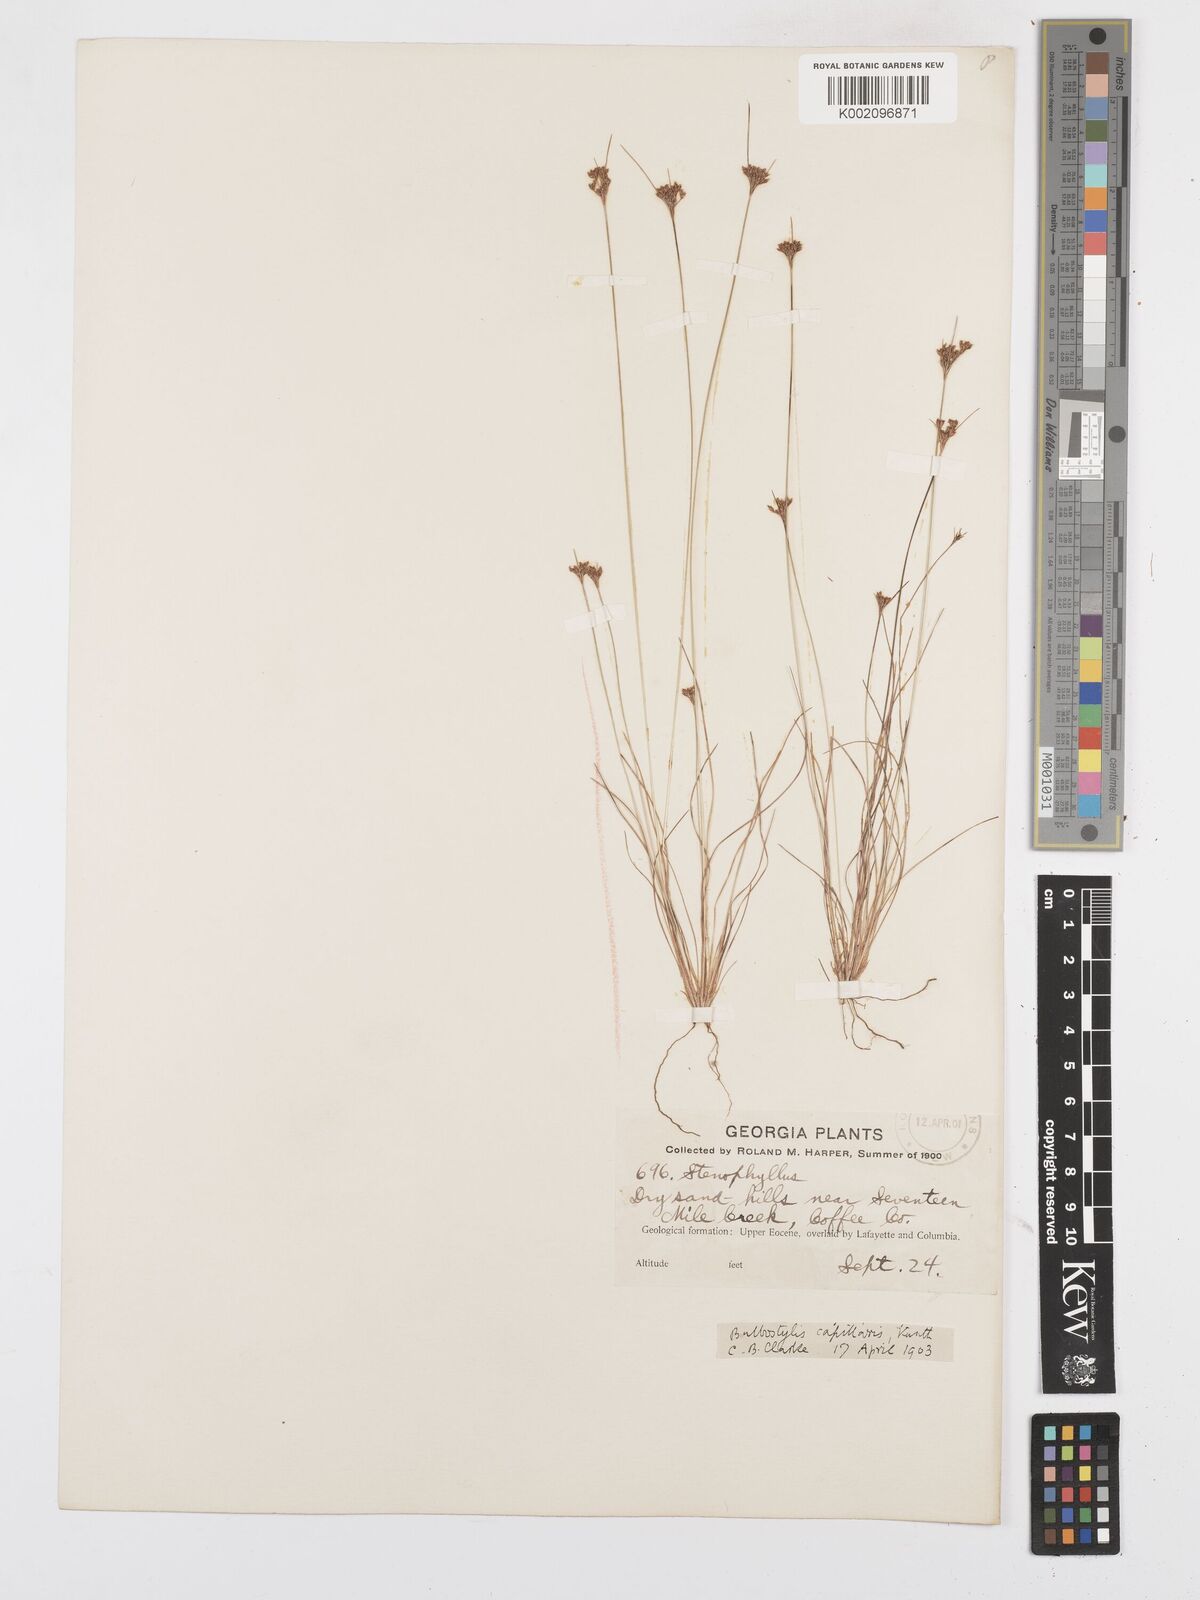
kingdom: Plantae
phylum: Tracheophyta
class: Liliopsida
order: Poales
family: Cyperaceae
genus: Bulbostylis
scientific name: Bulbostylis capillaris
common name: Densetuft hairsedge
